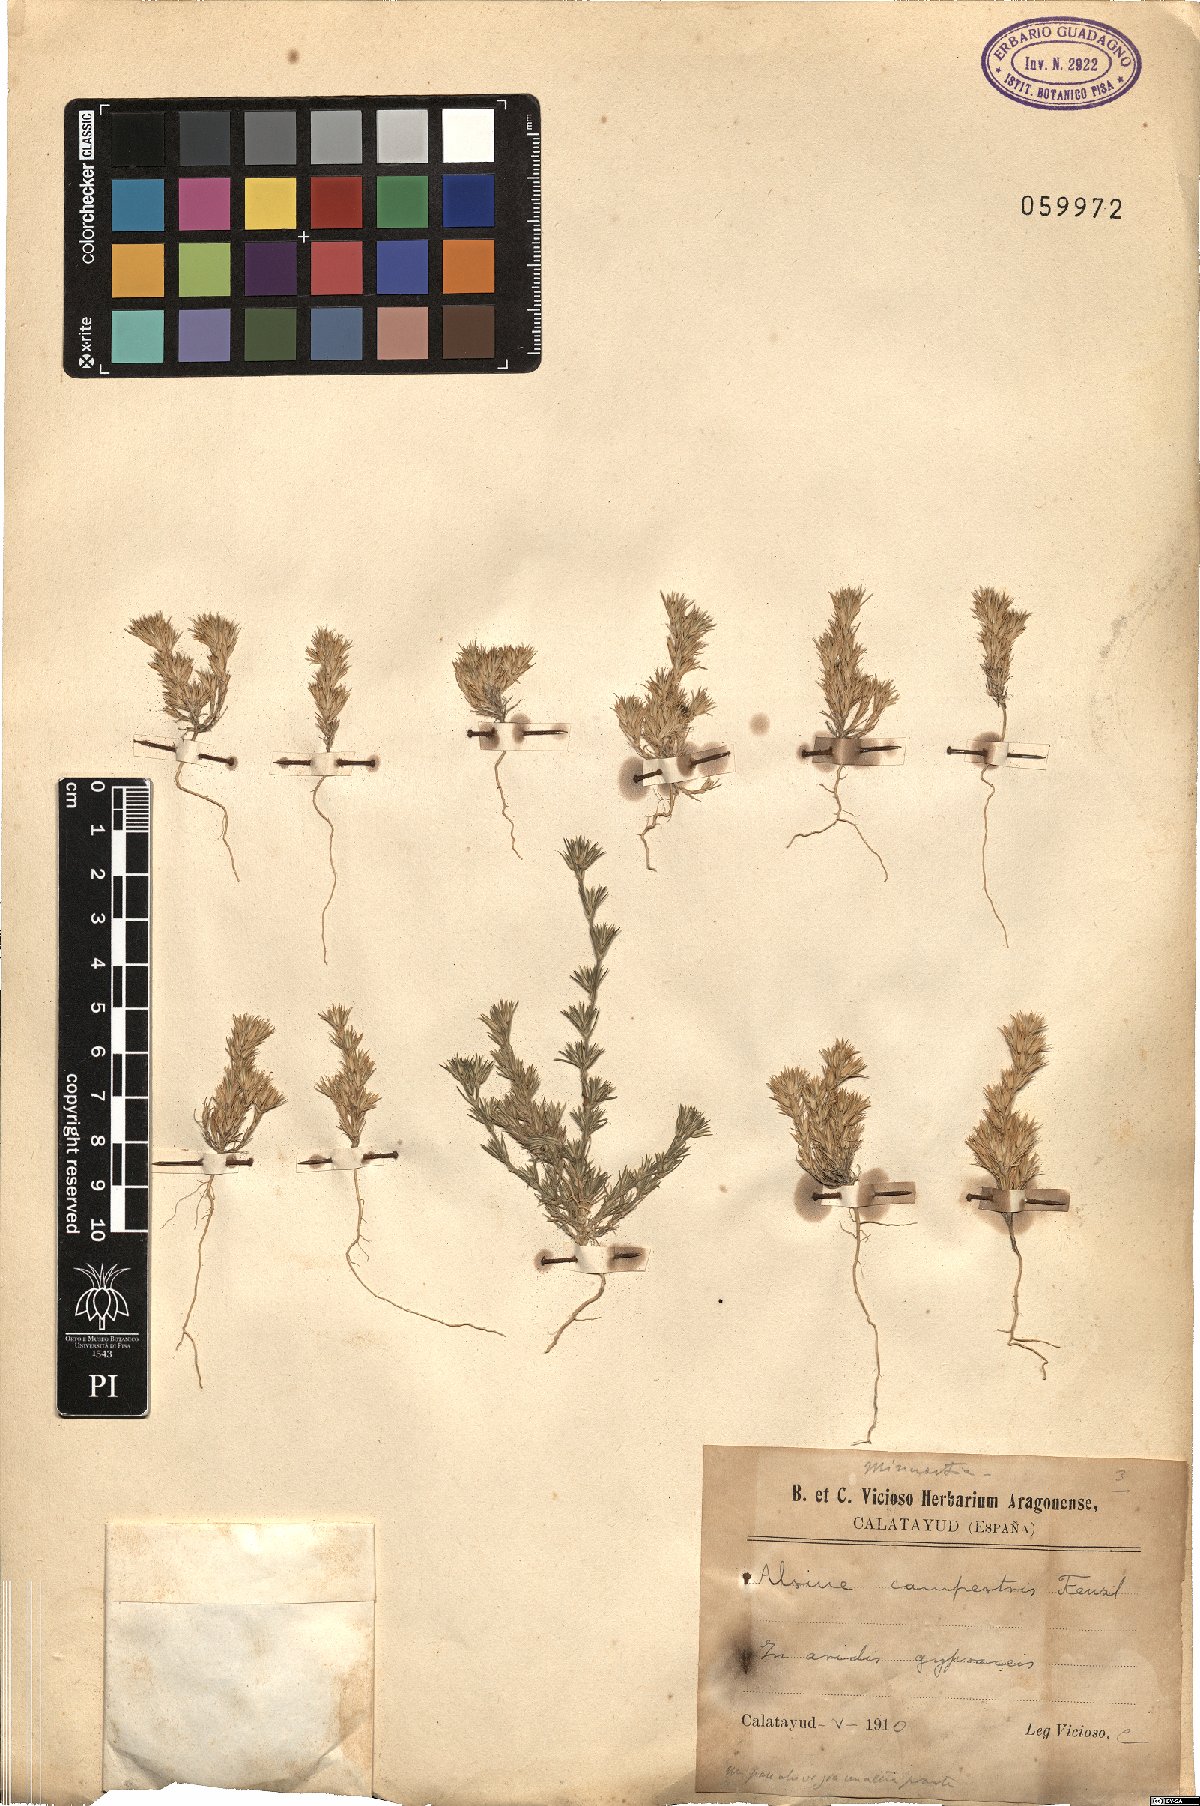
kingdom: Plantae
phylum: Tracheophyta
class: Magnoliopsida
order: Caryophyllales
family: Caryophyllaceae
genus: Minuartia
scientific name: Minuartia campestris
